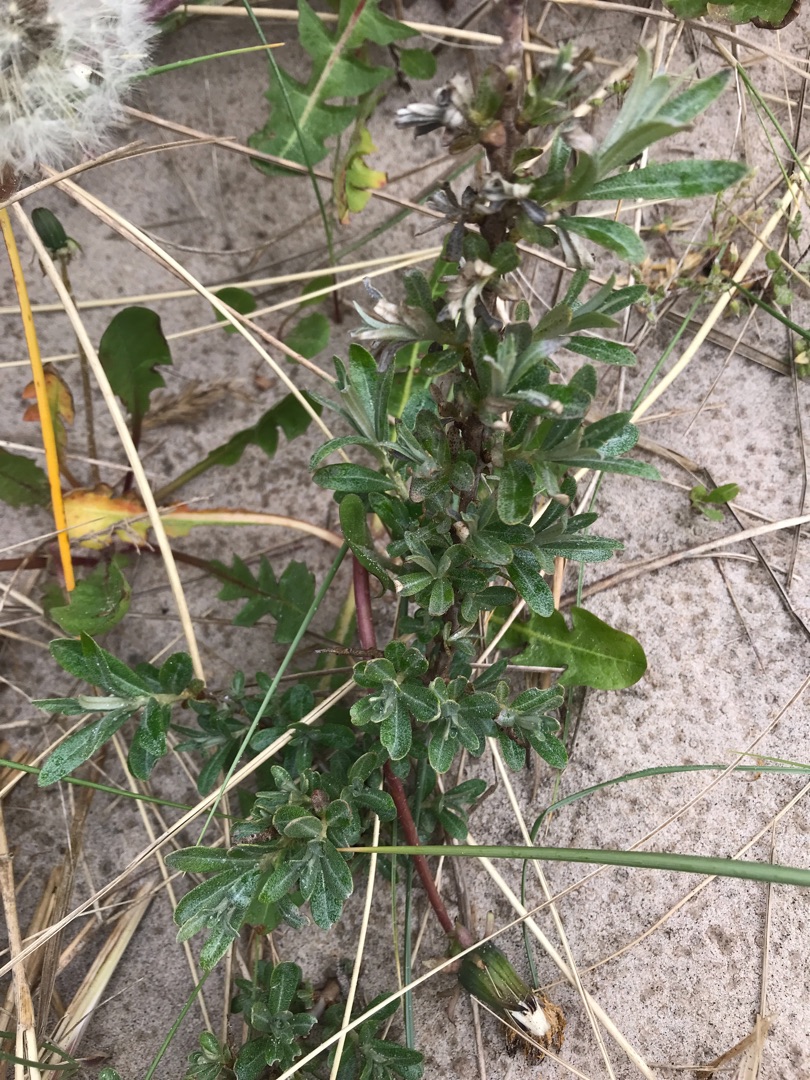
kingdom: Plantae
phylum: Tracheophyta
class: Magnoliopsida
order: Rosales
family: Elaeagnaceae
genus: Hippophae
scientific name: Hippophae rhamnoides
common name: Havtorn
